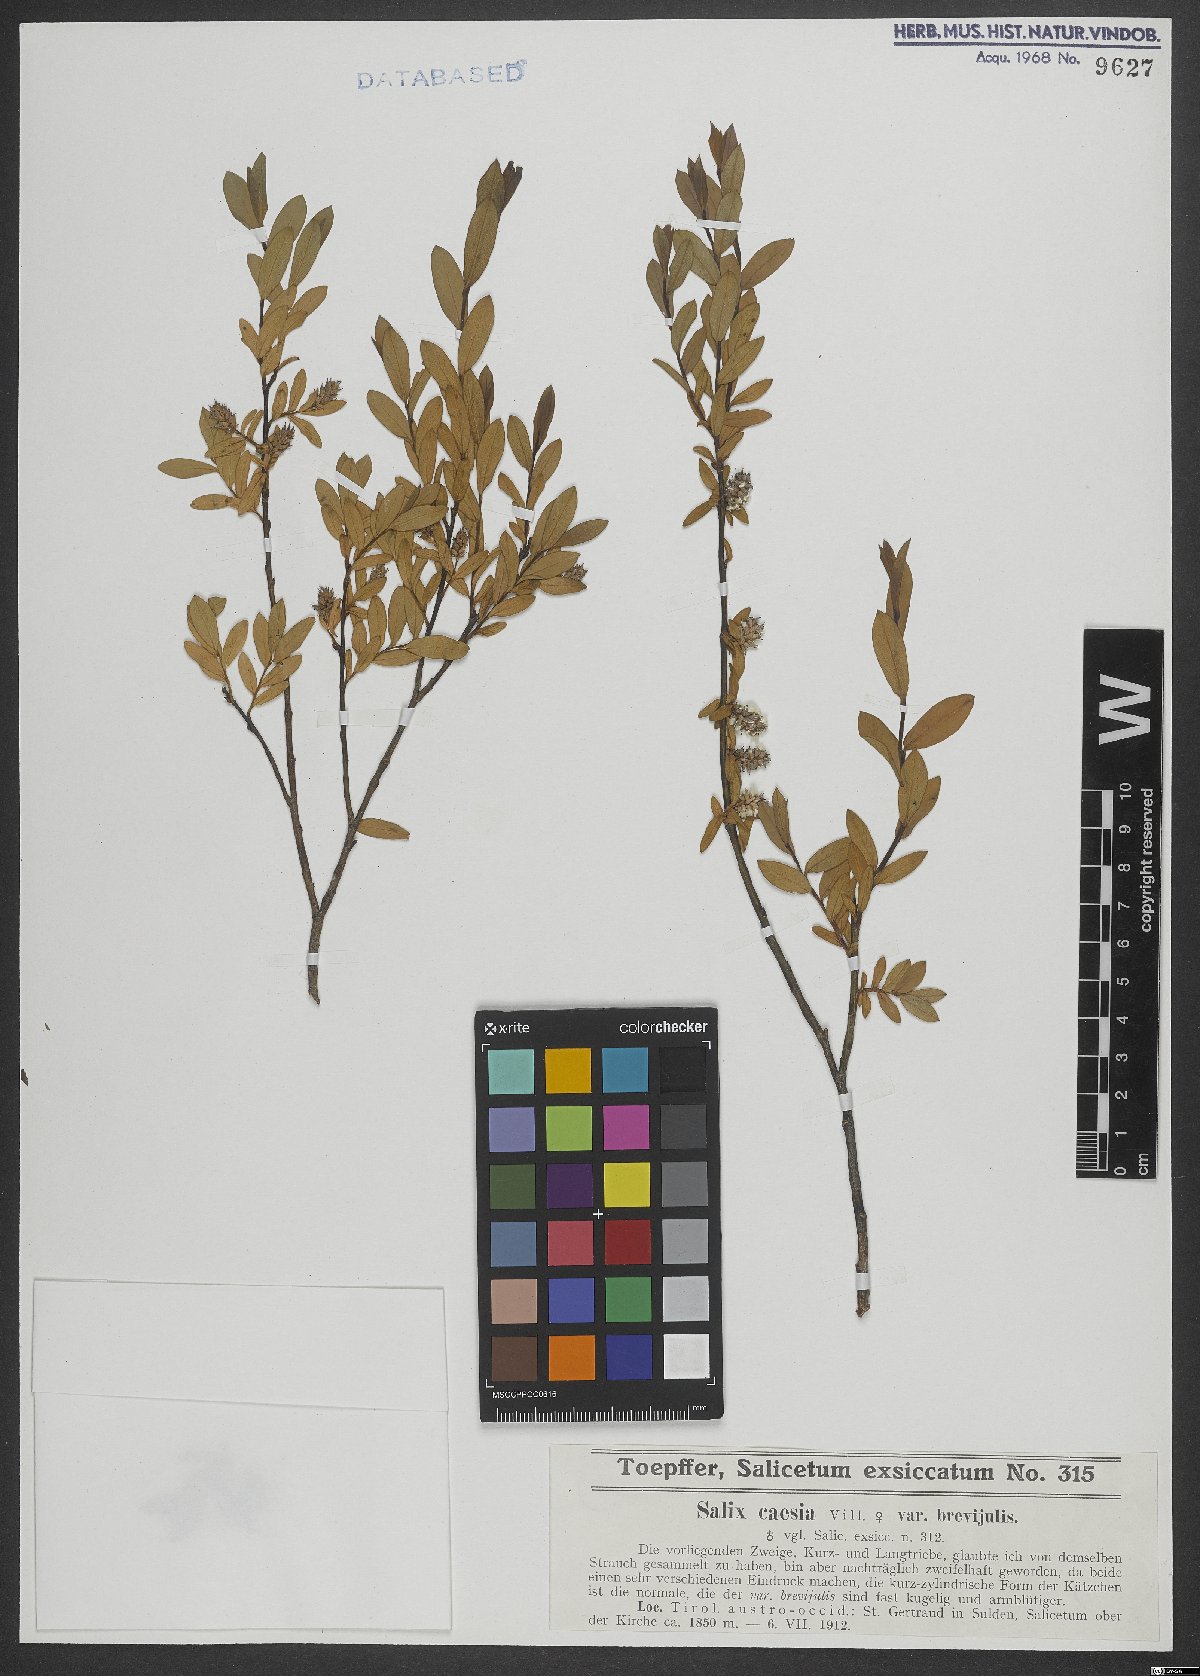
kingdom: Plantae
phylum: Tracheophyta
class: Magnoliopsida
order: Malpighiales
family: Salicaceae
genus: Salix
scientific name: Salix caesia
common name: Blue willow
